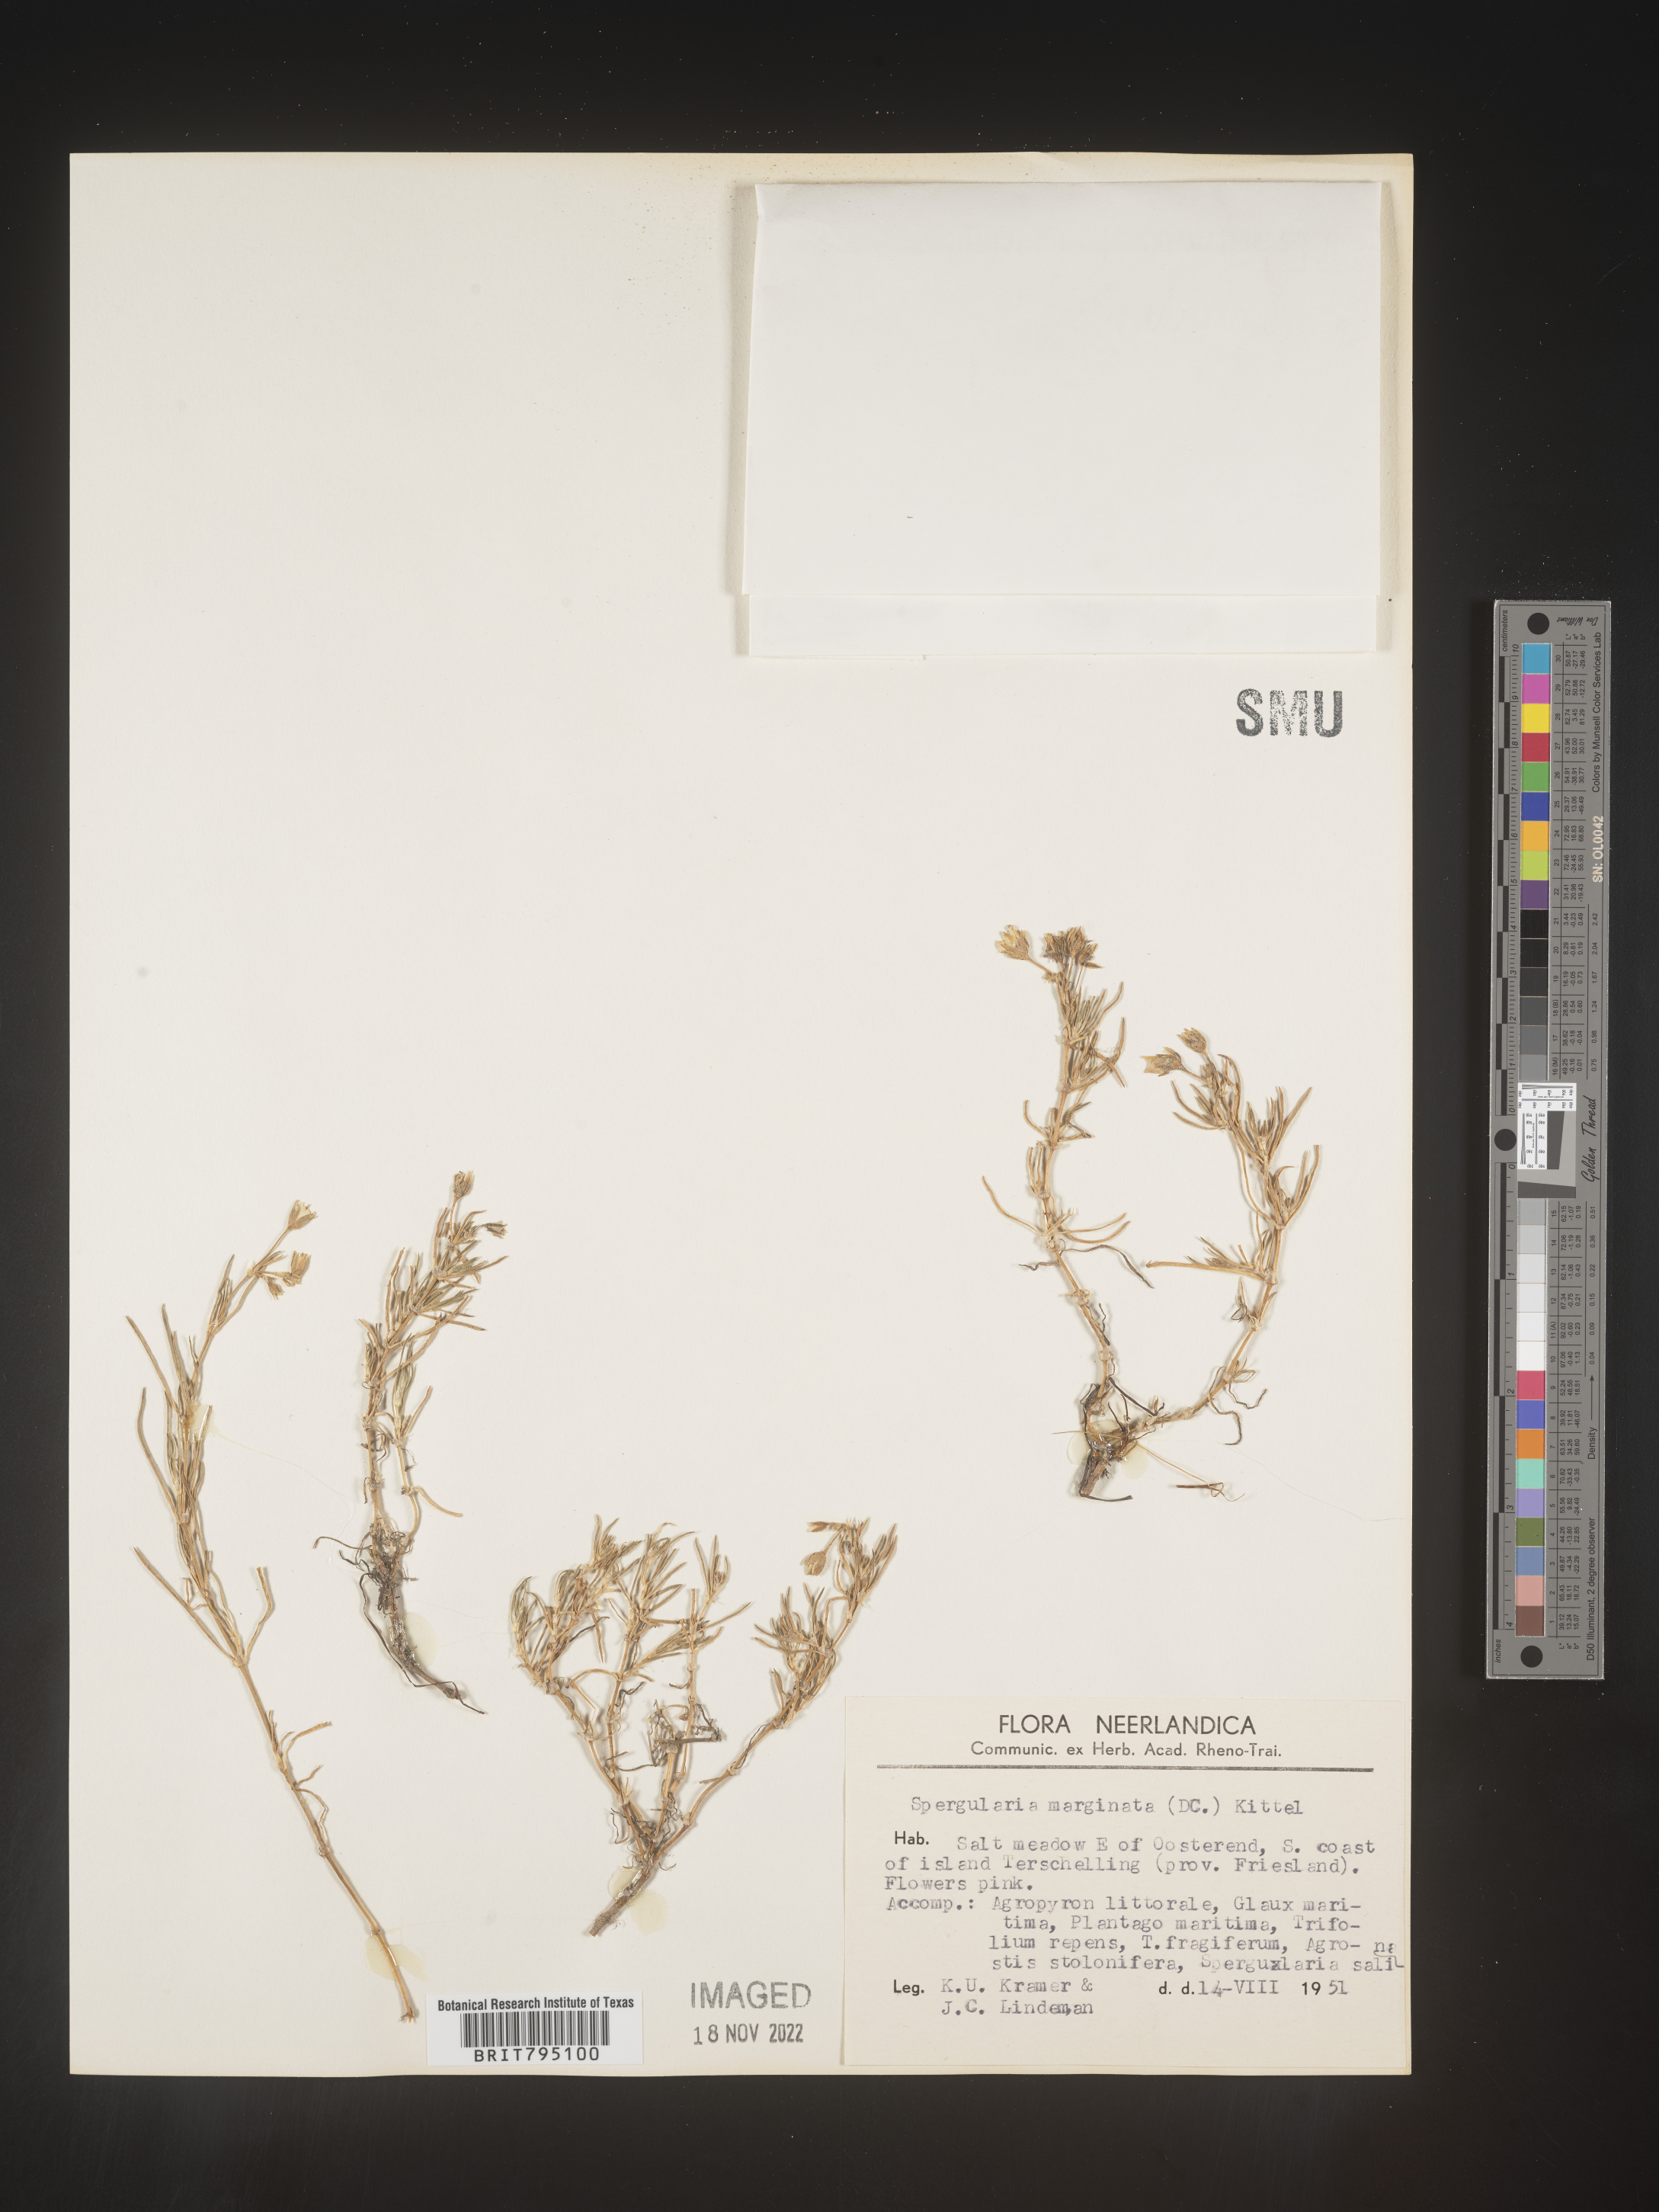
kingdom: Plantae
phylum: Tracheophyta
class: Magnoliopsida
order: Caryophyllales
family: Caryophyllaceae
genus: Spergularia
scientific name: Spergularia media
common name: Greater sea-spurrey
